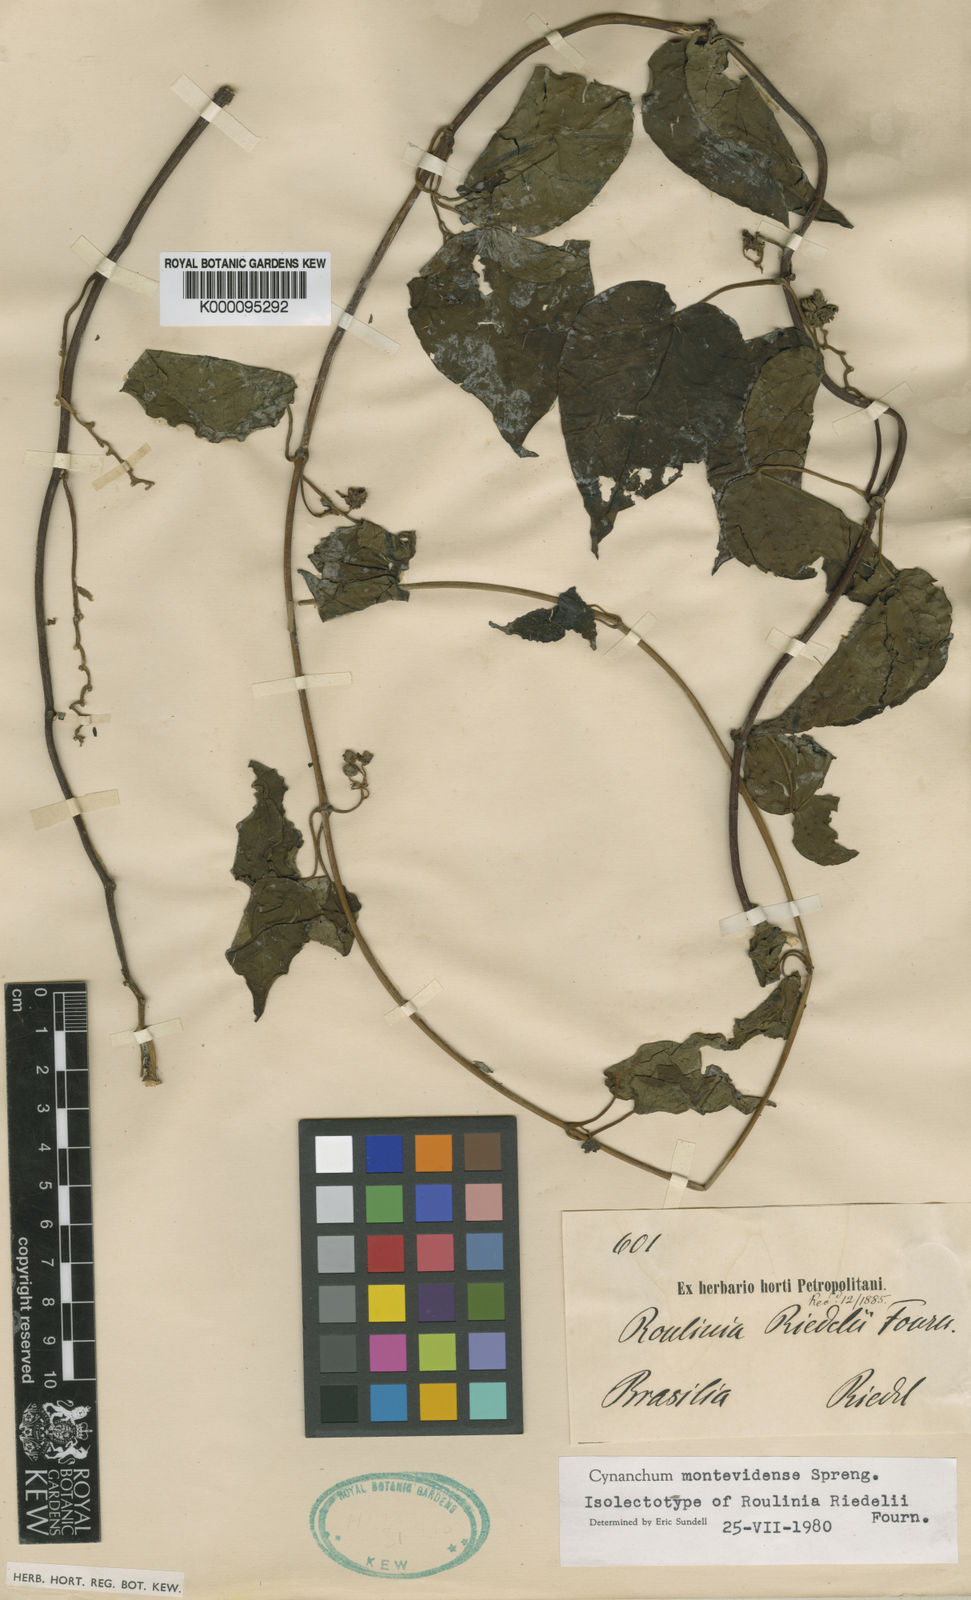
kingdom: Plantae
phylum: Tracheophyta
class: Magnoliopsida
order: Gentianales
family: Apocynaceae
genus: Cynanchum
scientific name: Cynanchum montevidense
